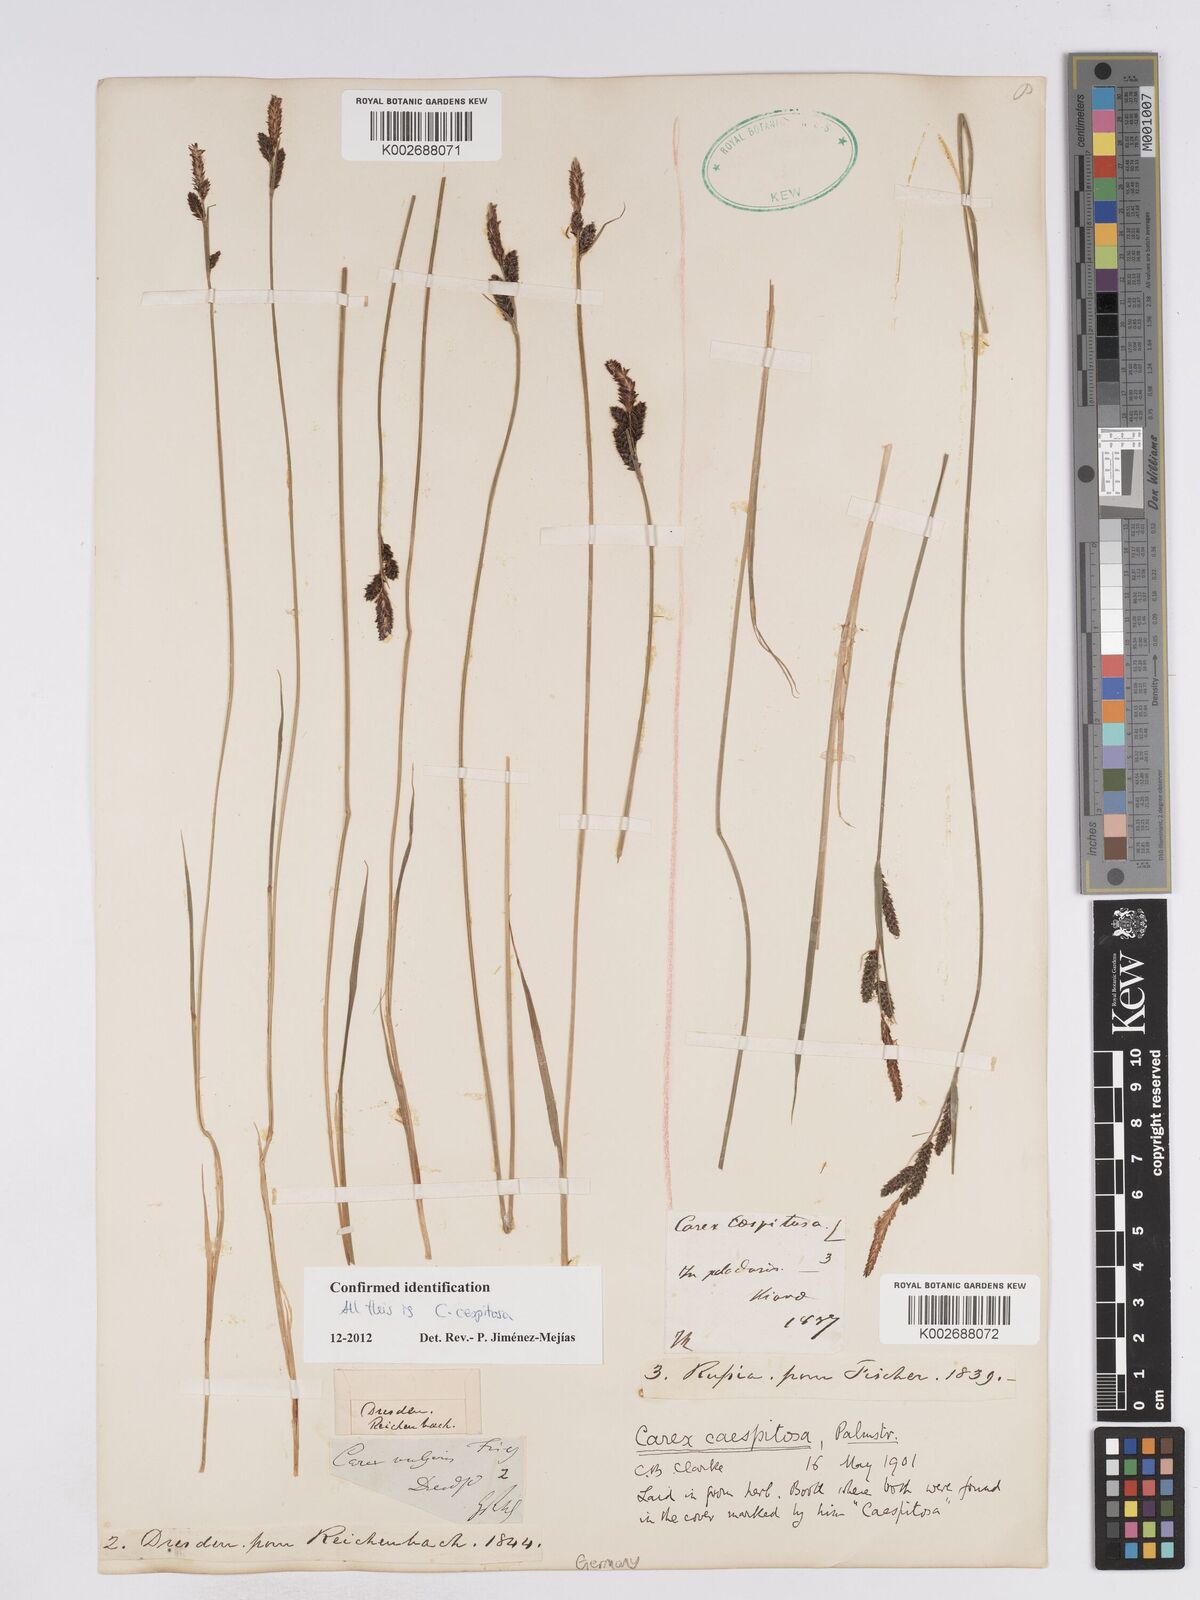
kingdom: Plantae
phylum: Tracheophyta
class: Liliopsida
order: Poales
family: Cyperaceae
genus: Carex
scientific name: Carex
